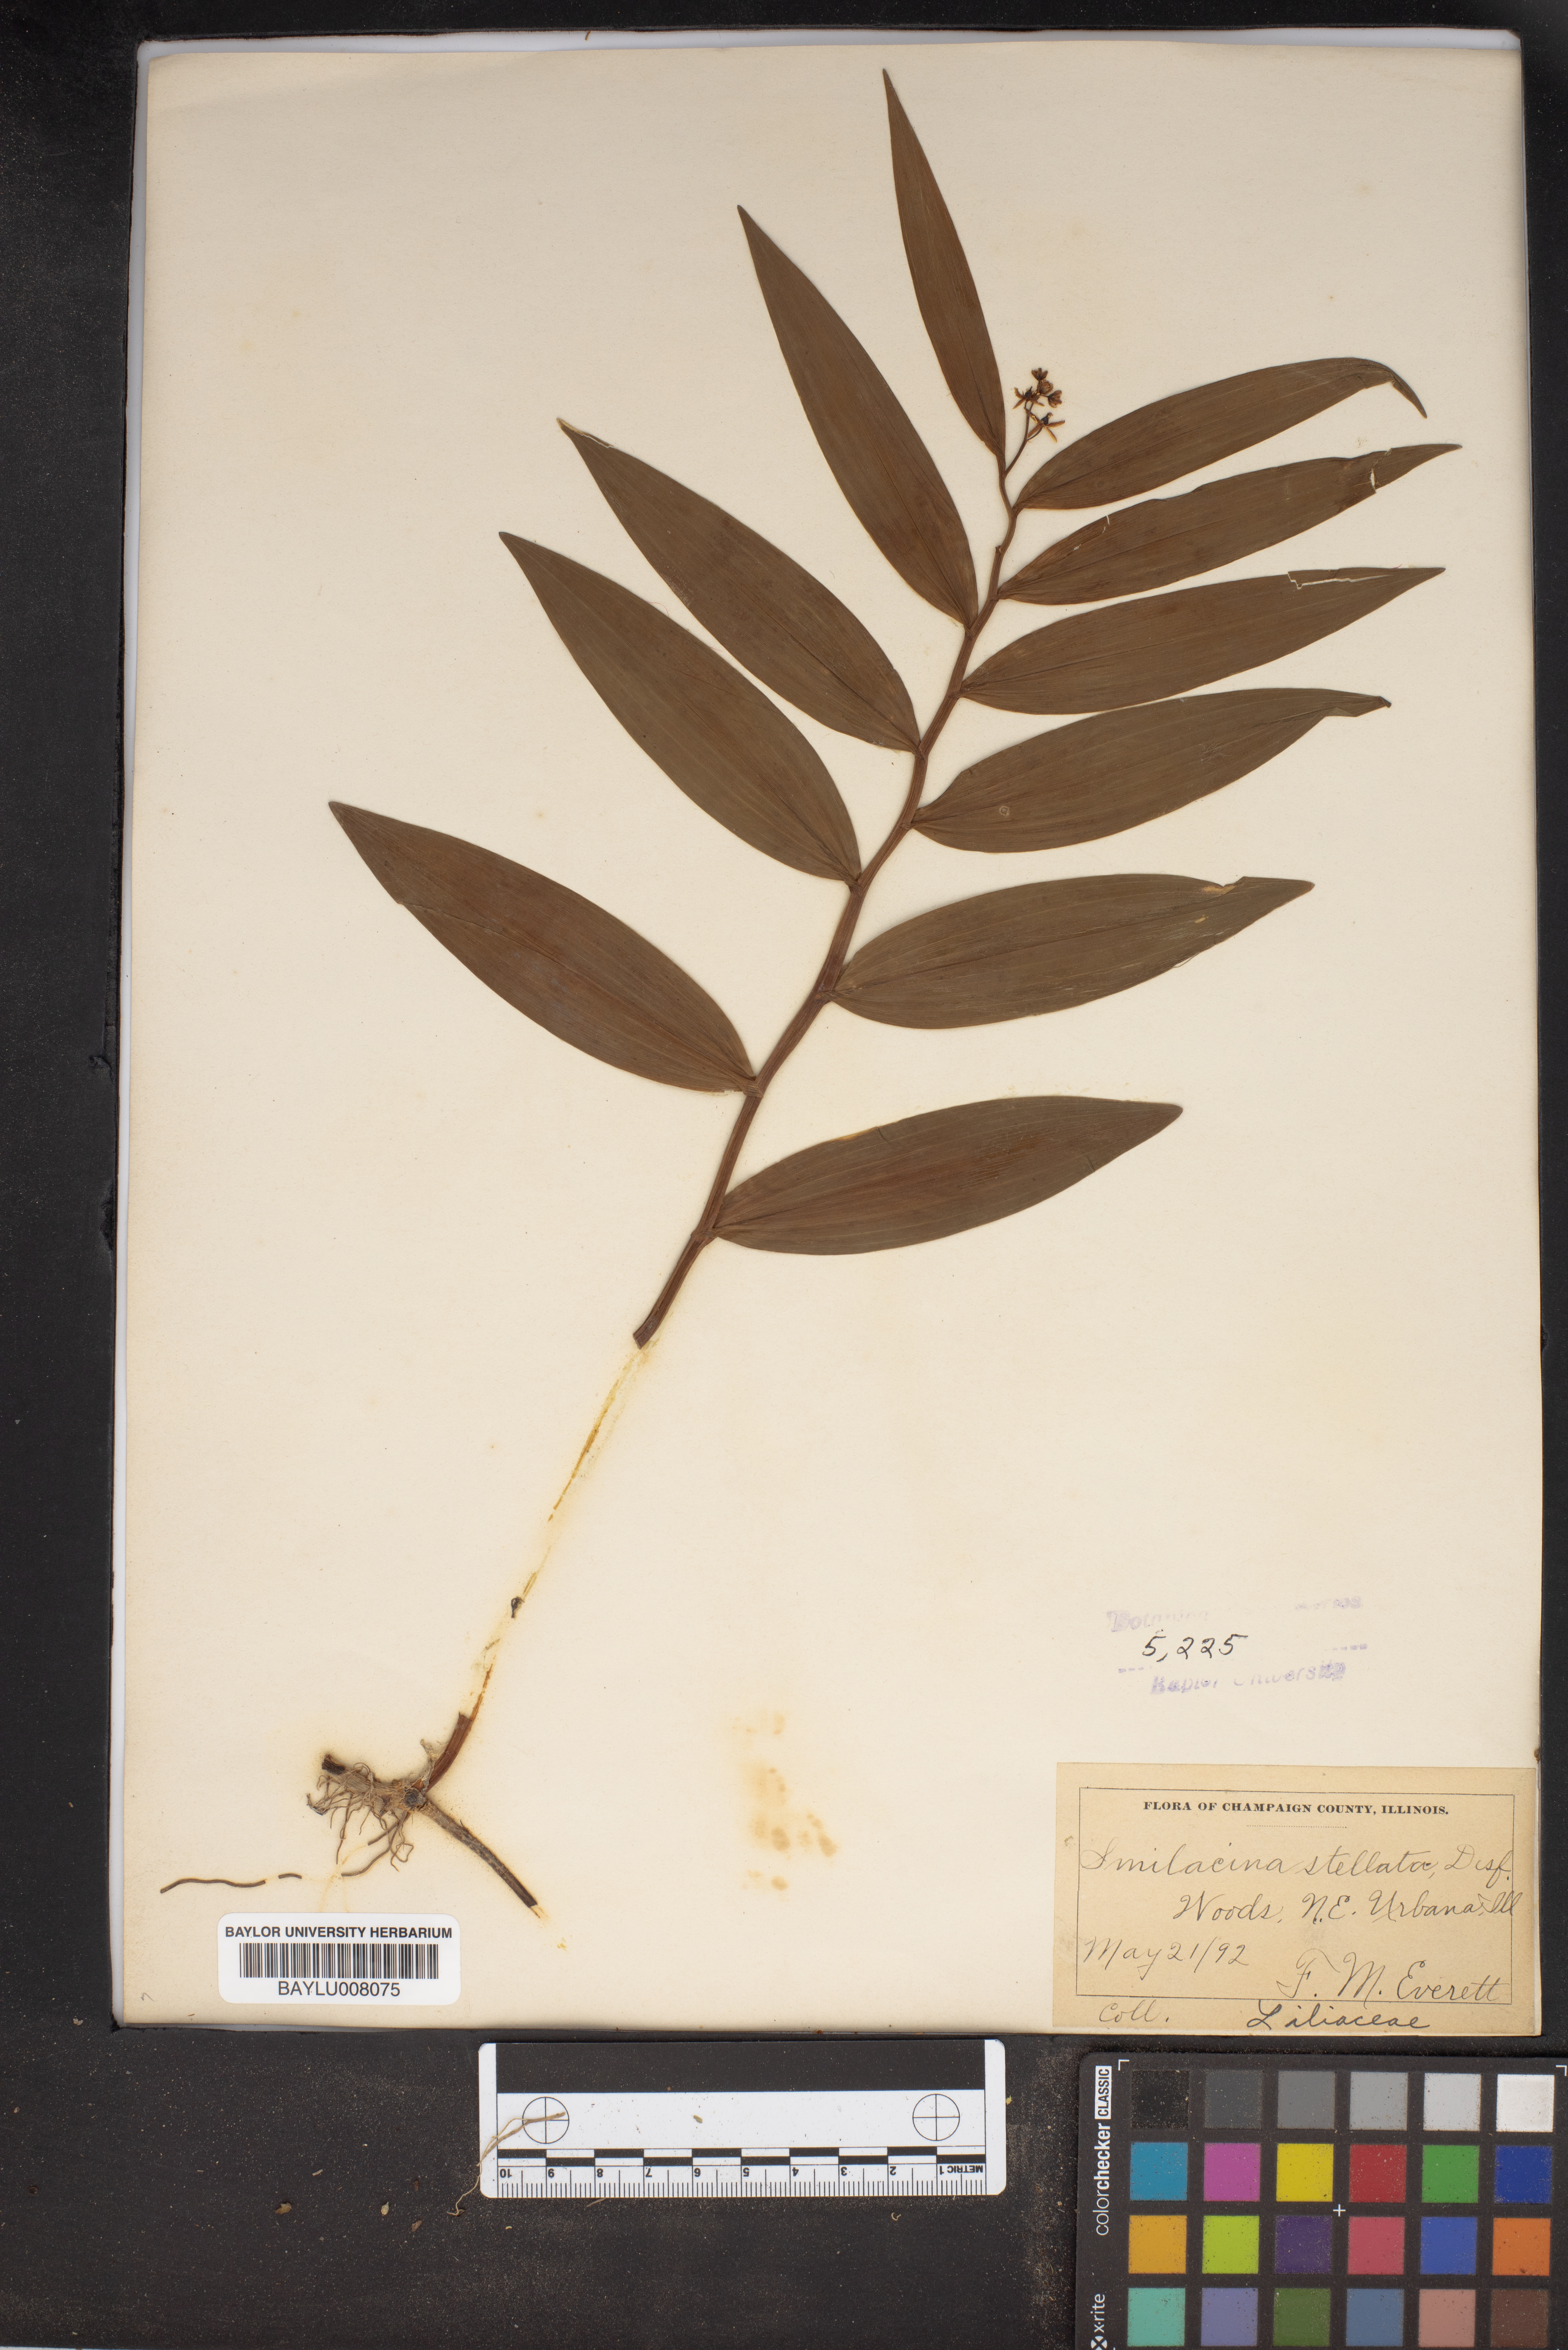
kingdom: Plantae
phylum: Tracheophyta
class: Liliopsida
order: Asparagales
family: Asparagaceae
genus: Maianthemum
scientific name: Maianthemum stellatum
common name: Little false solomon's seal
